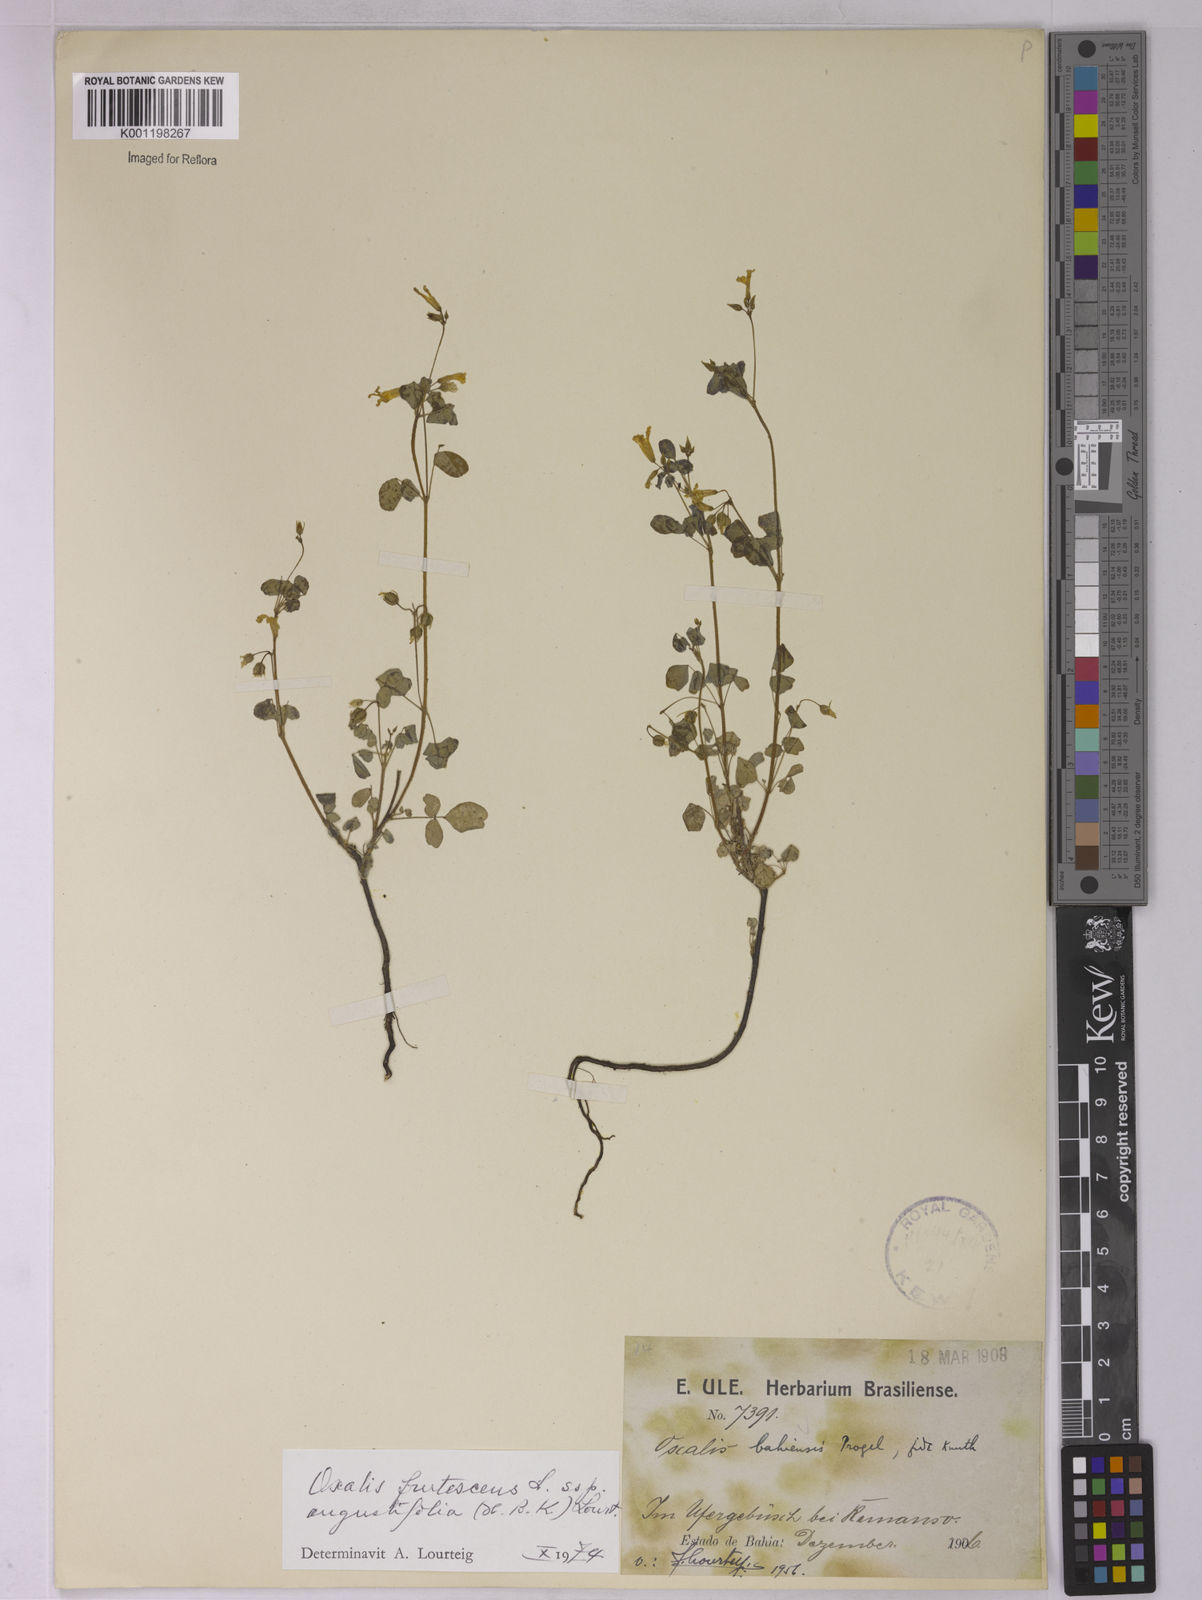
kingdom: Plantae
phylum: Tracheophyta
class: Magnoliopsida
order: Oxalidales
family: Oxalidaceae
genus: Oxalis
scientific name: Oxalis frutescens
